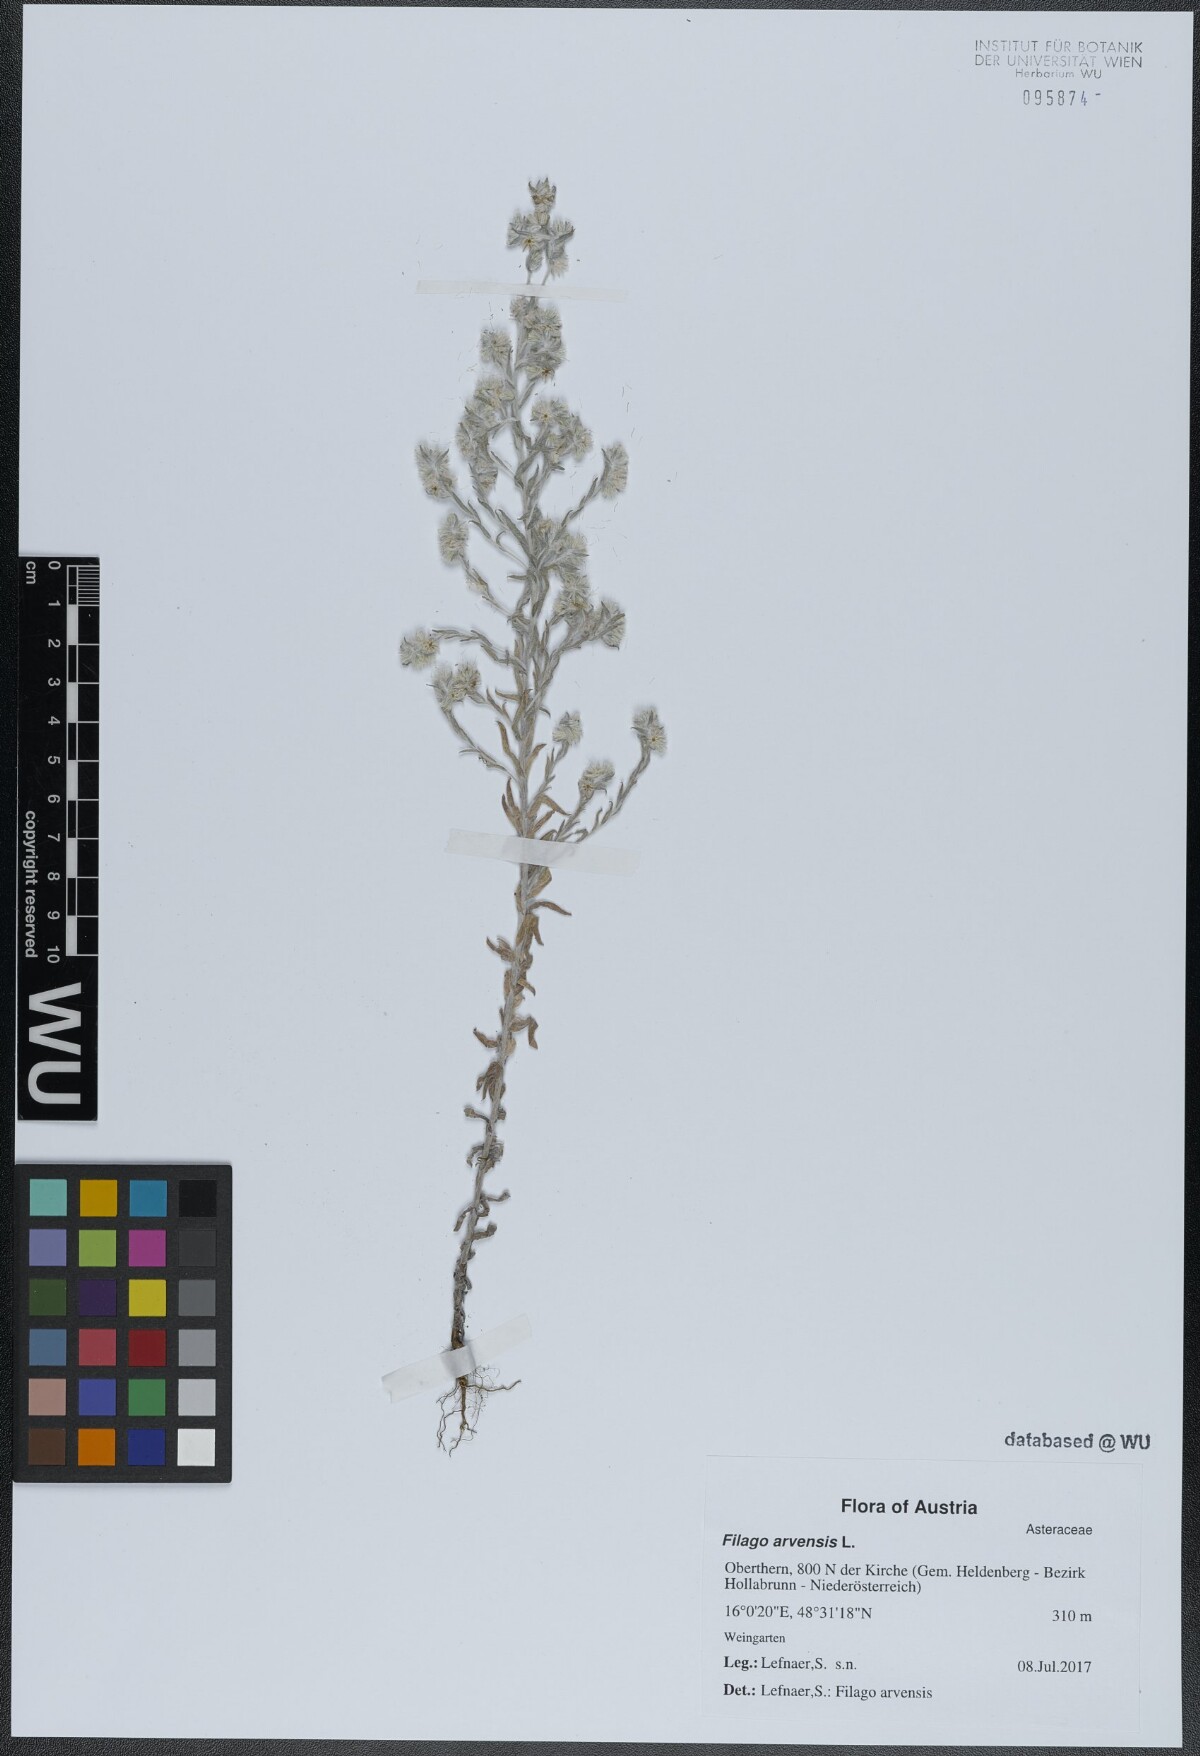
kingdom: Plantae
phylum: Tracheophyta
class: Magnoliopsida
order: Asterales
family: Asteraceae
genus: Filago
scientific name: Filago arvensis
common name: Field cudweed
